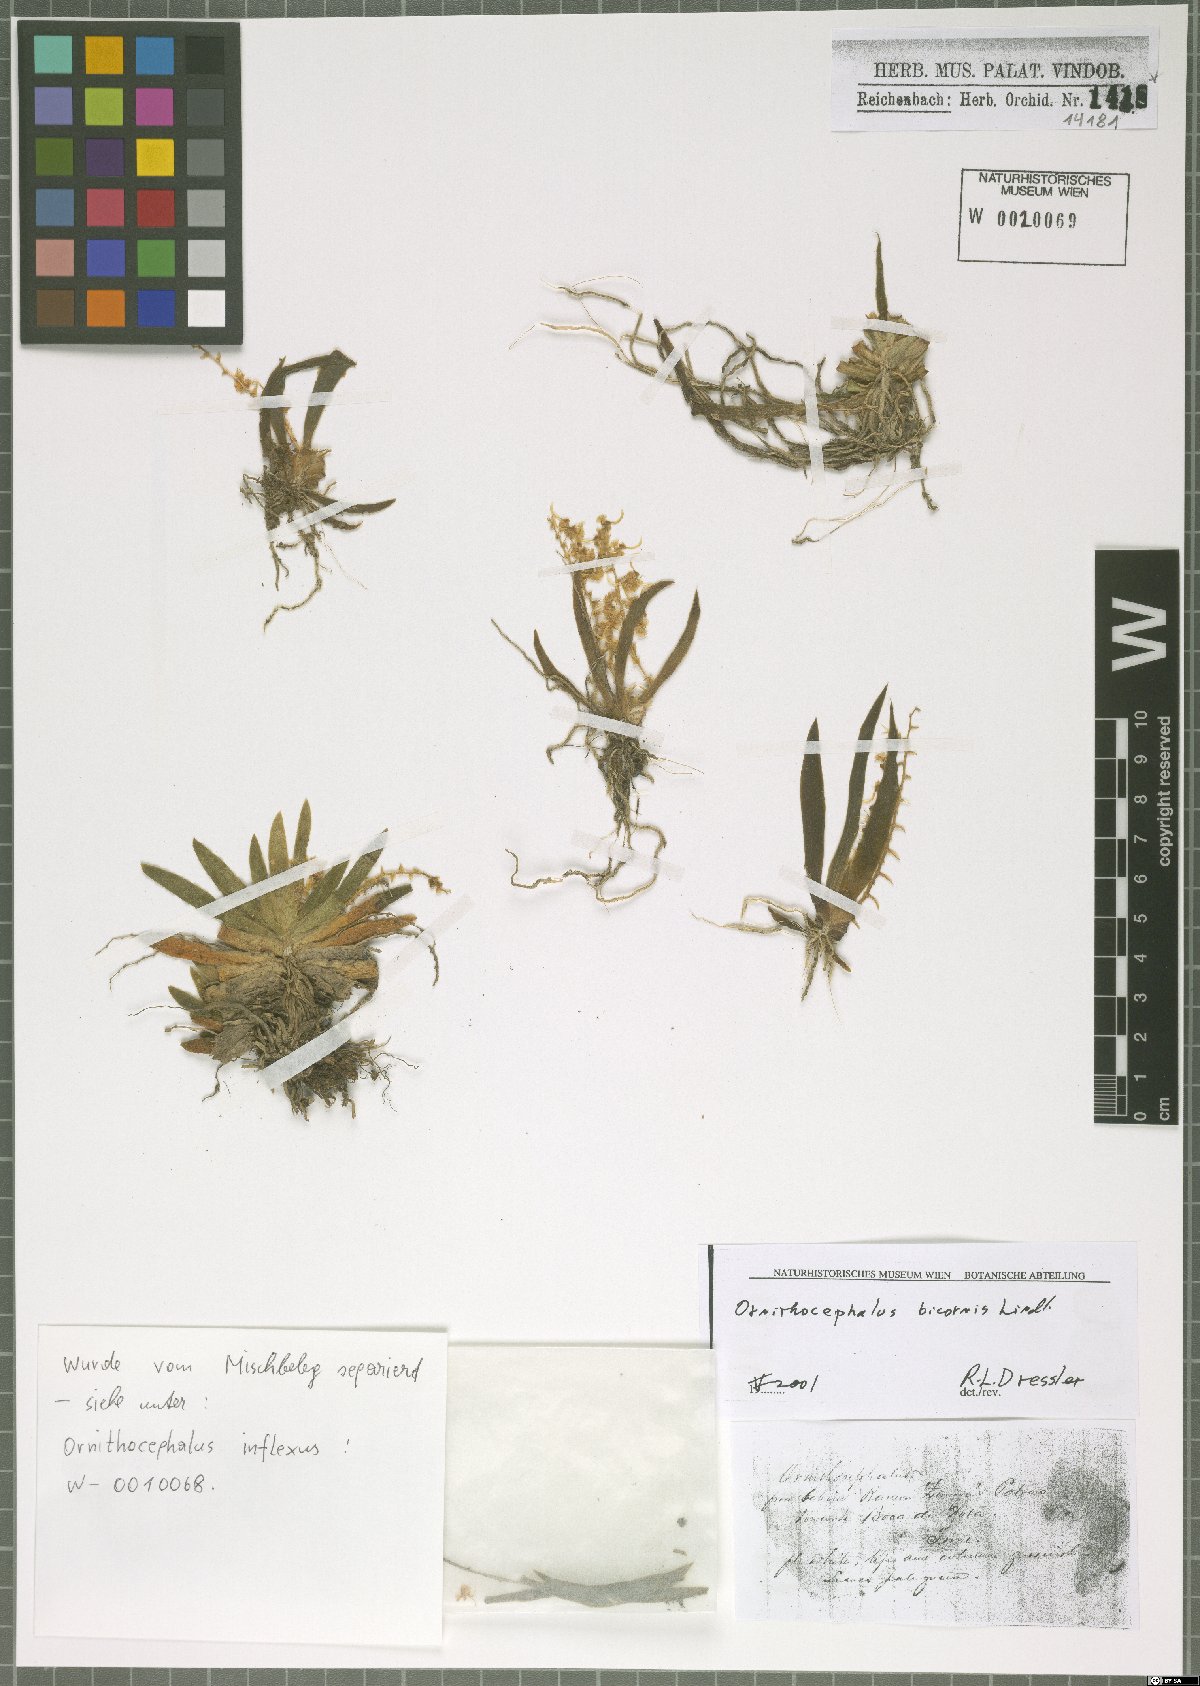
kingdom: Plantae
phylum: Tracheophyta
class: Liliopsida
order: Asparagales
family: Orchidaceae
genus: Ornithocephalus
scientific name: Ornithocephalus bicornis
